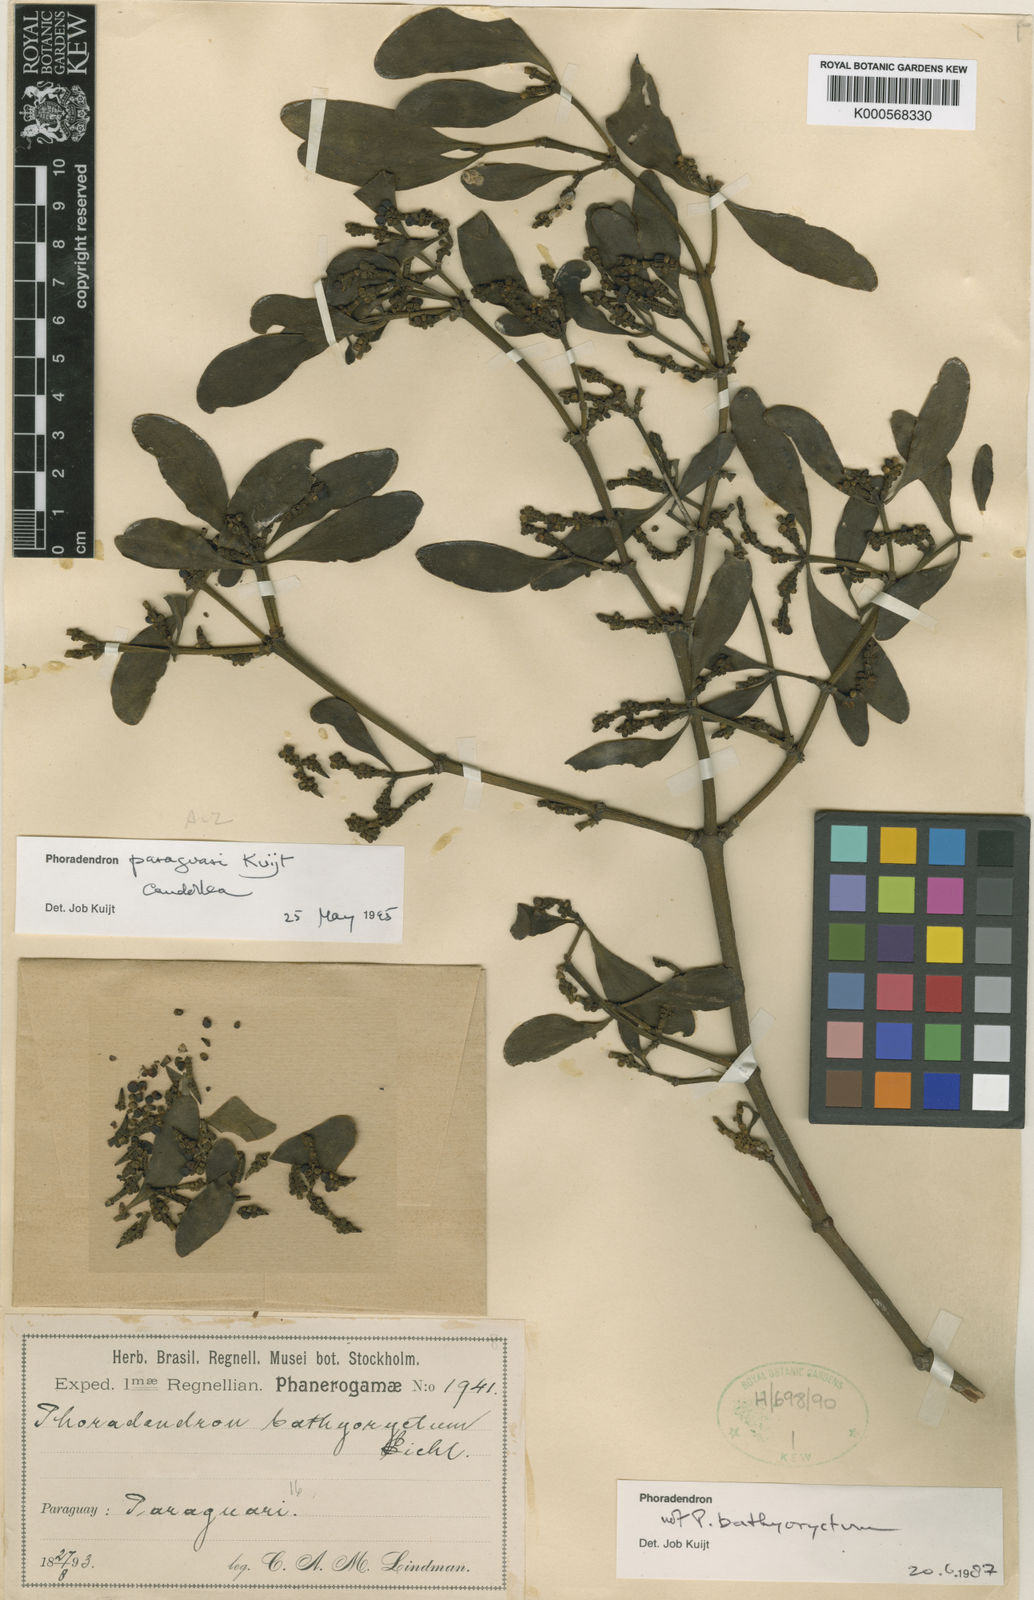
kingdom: Plantae
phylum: Tracheophyta
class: Magnoliopsida
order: Santalales
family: Viscaceae
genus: Phoradendron
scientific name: Phoradendron paraguari
